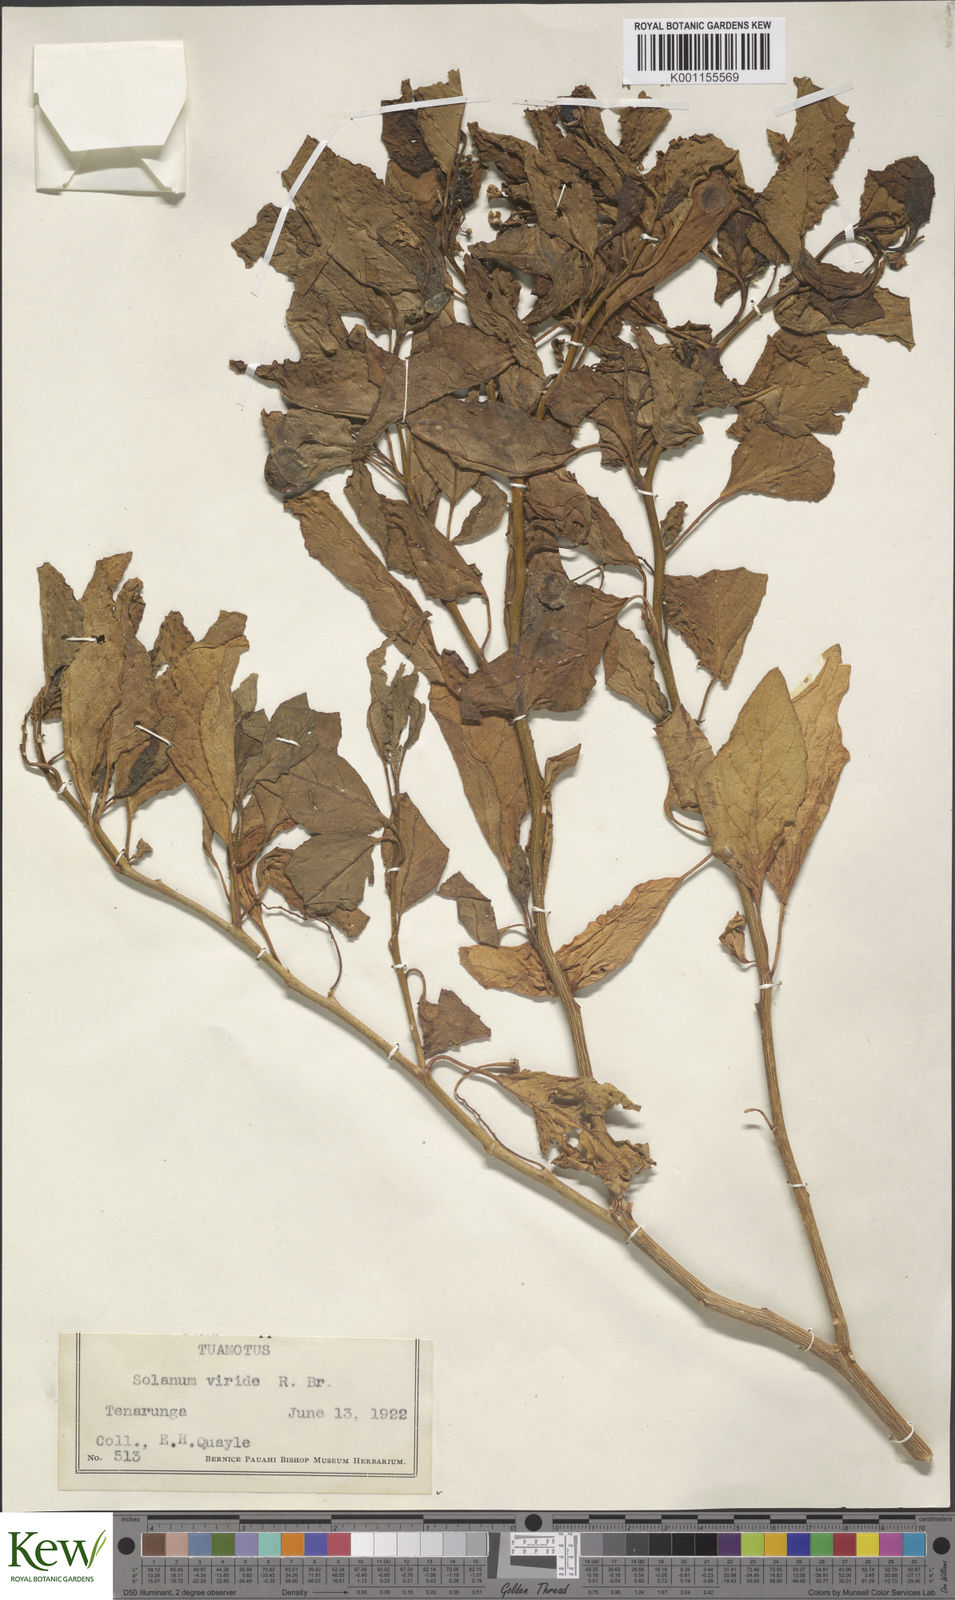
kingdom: Plantae
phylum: Tracheophyta
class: Magnoliopsida
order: Solanales
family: Solanaceae
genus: Solanum
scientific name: Solanum viridifolium
